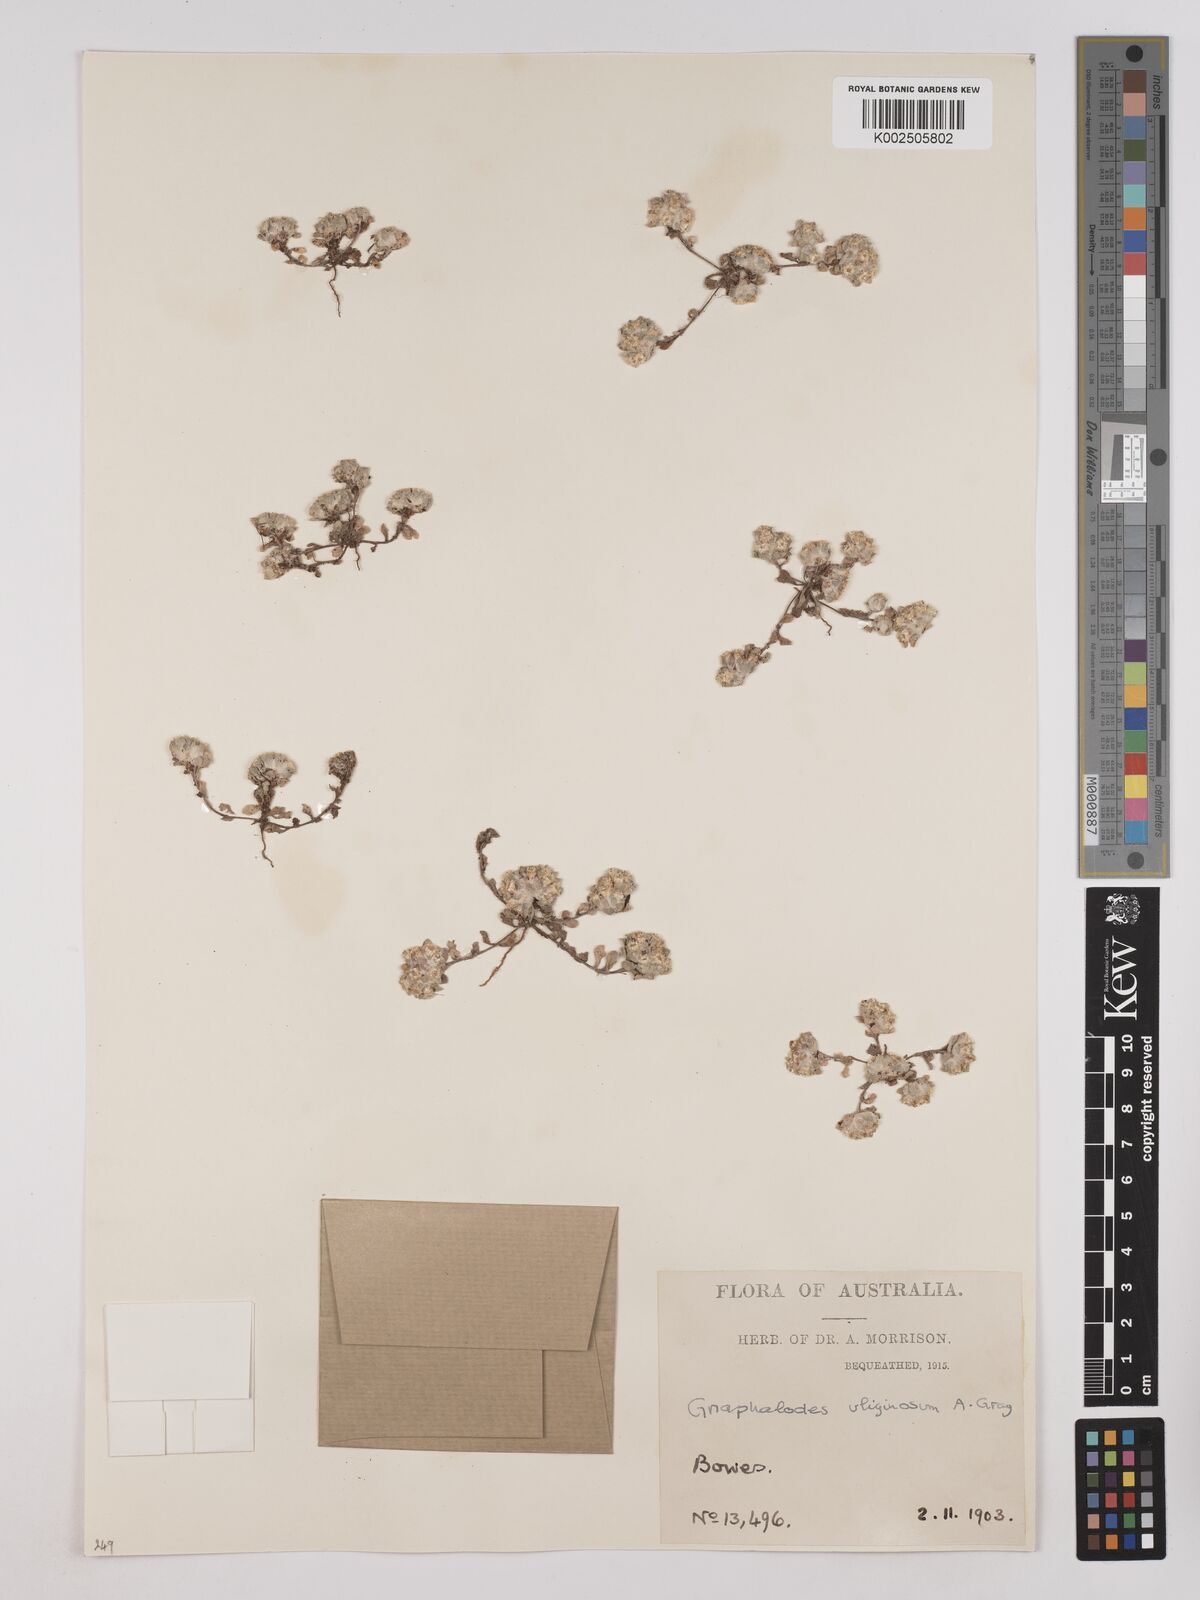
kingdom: Plantae
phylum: Tracheophyta
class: Magnoliopsida
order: Asterales
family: Asteraceae
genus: Actinobole
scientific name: Actinobole uliginosum
